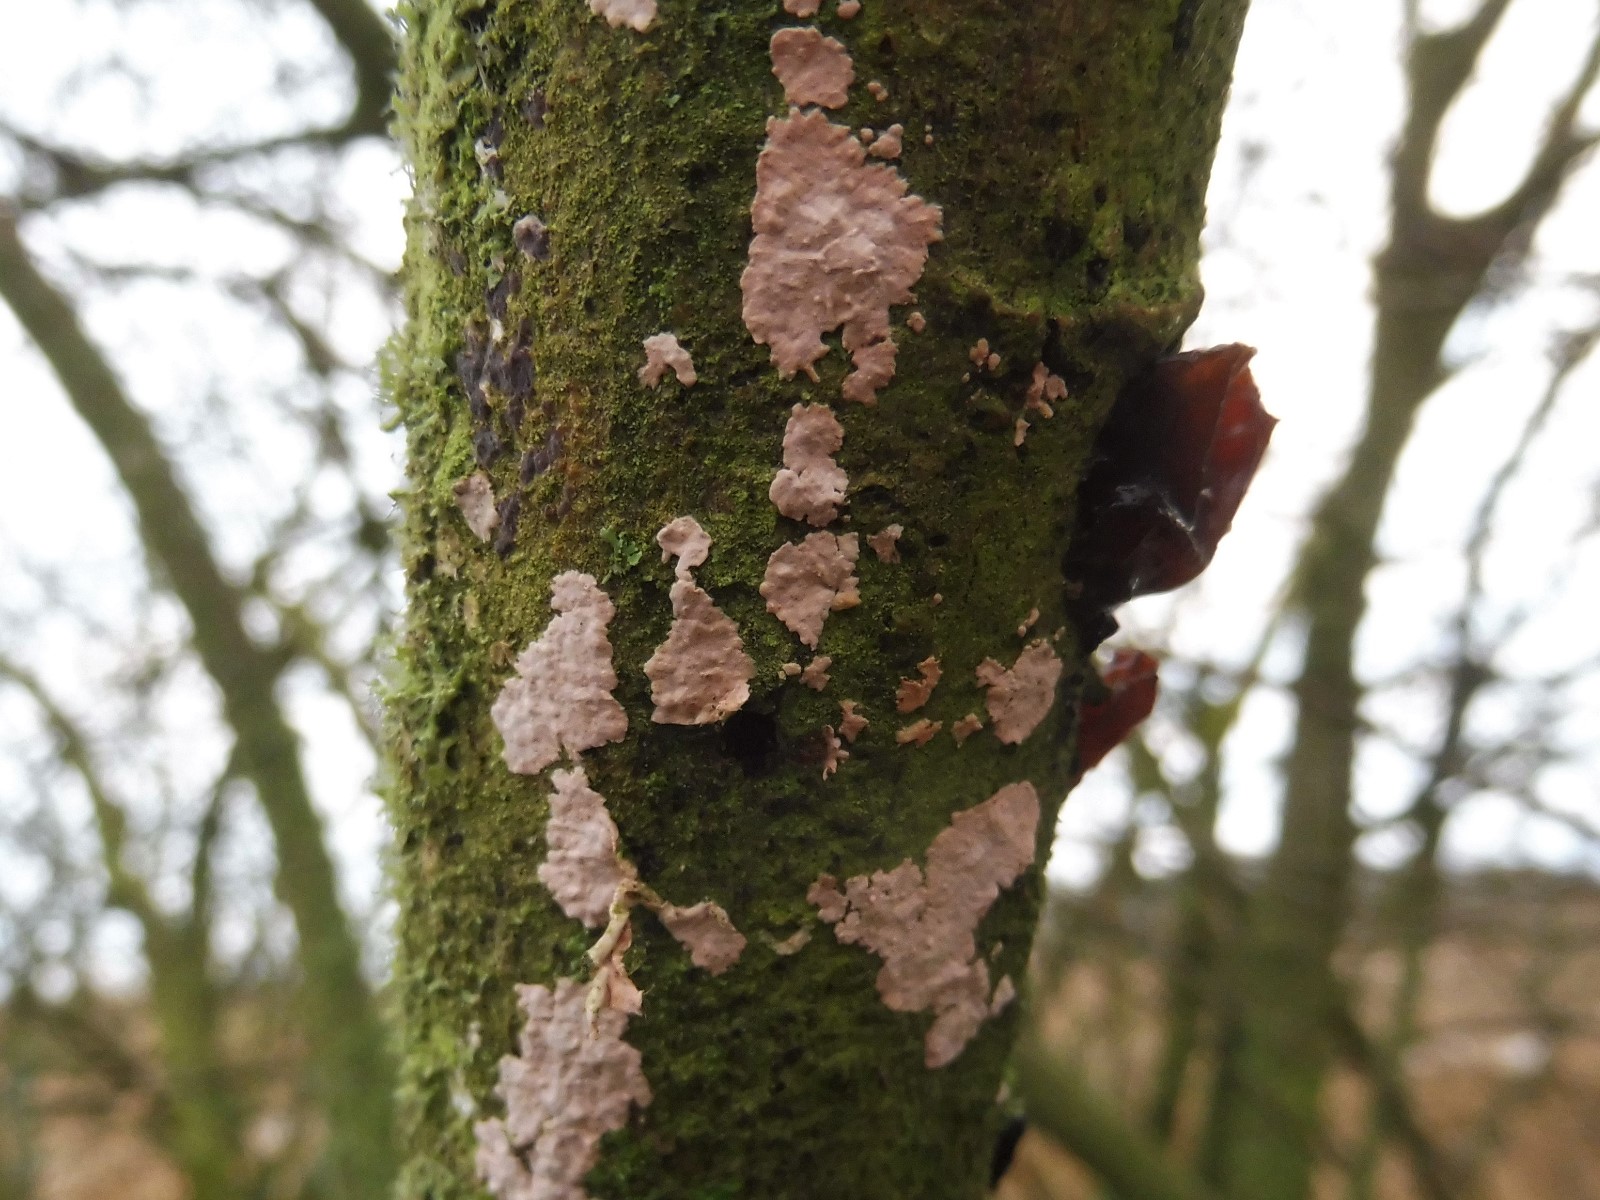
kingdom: Fungi
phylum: Basidiomycota
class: Agaricomycetes
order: Corticiales
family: Corticiaceae
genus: Corticium
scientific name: Corticium roseum
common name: rosa barkskind
